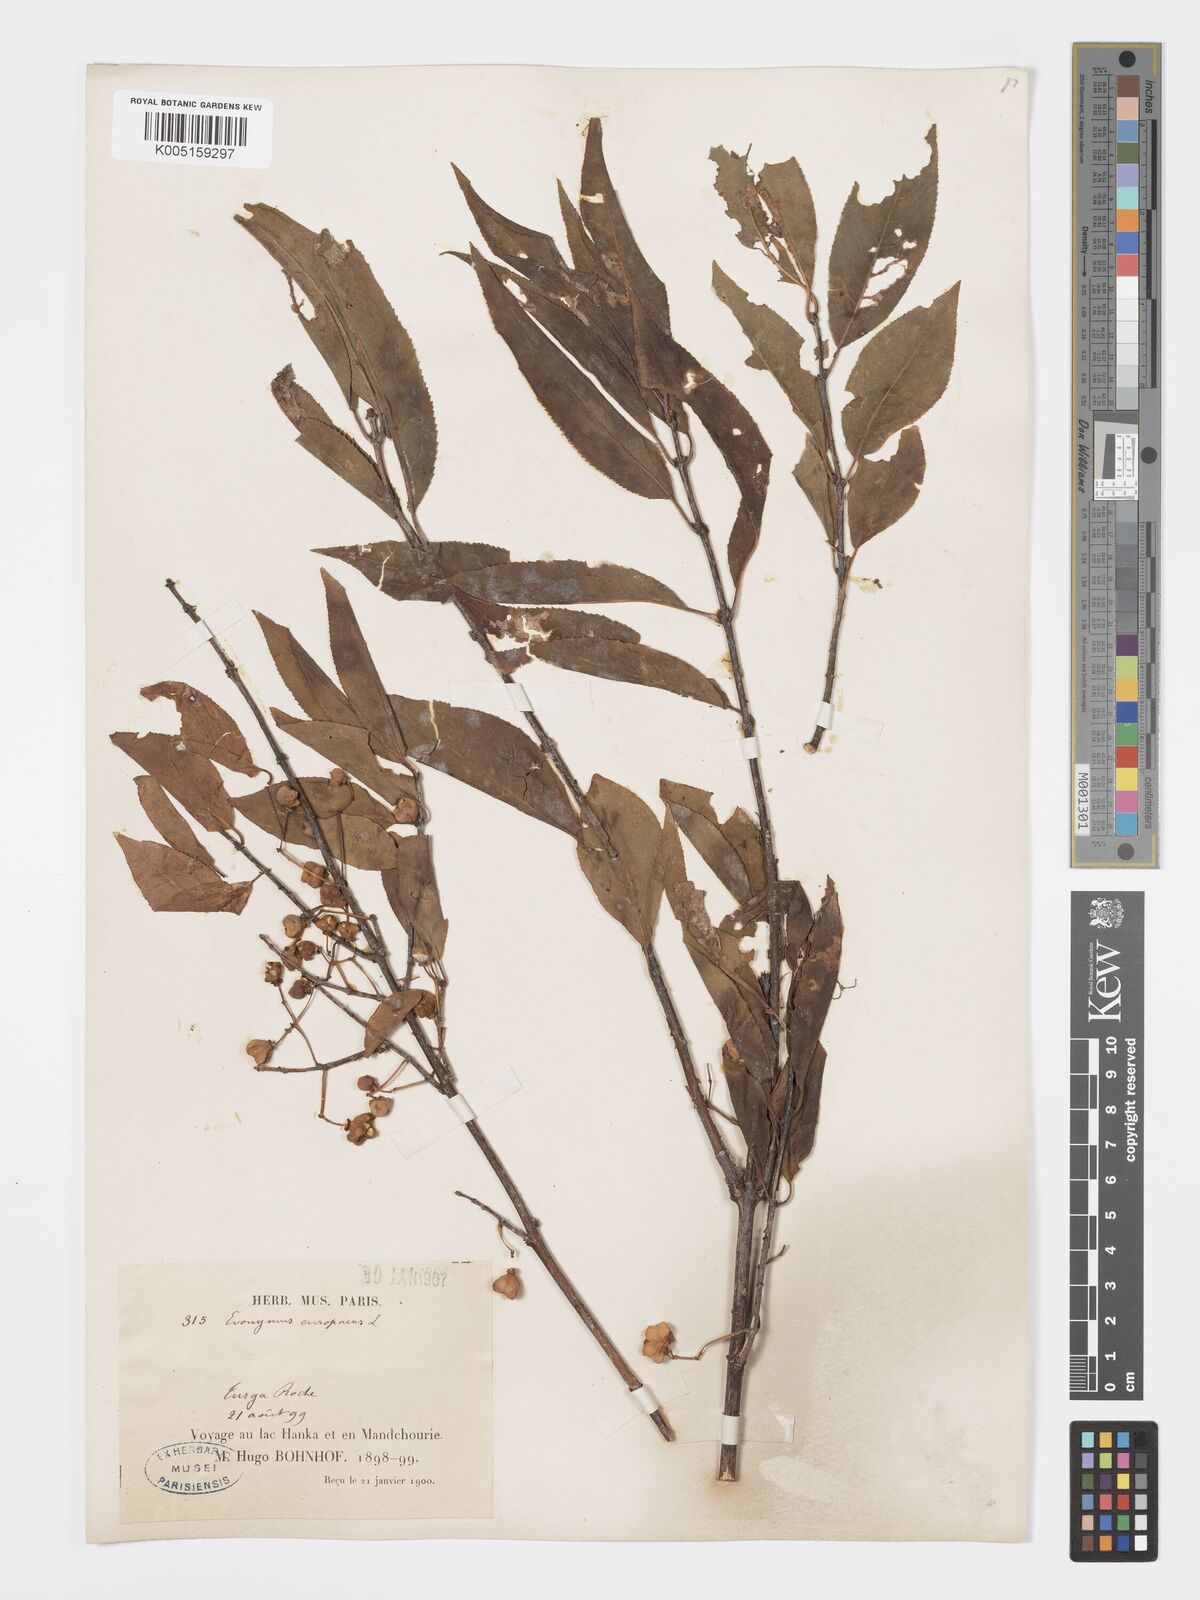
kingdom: Plantae
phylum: Tracheophyta
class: Magnoliopsida
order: Celastrales
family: Celastraceae
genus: Euonymus
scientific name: Euonymus maackii
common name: Hamilton's spindletree
